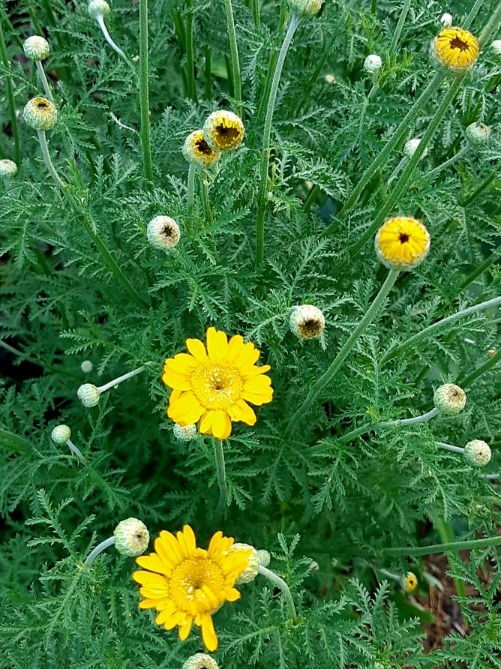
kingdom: Plantae
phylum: Tracheophyta
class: Magnoliopsida
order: Asterales
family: Asteraceae
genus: Cota
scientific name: Cota tinctoria
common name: Farve-gåseurt
